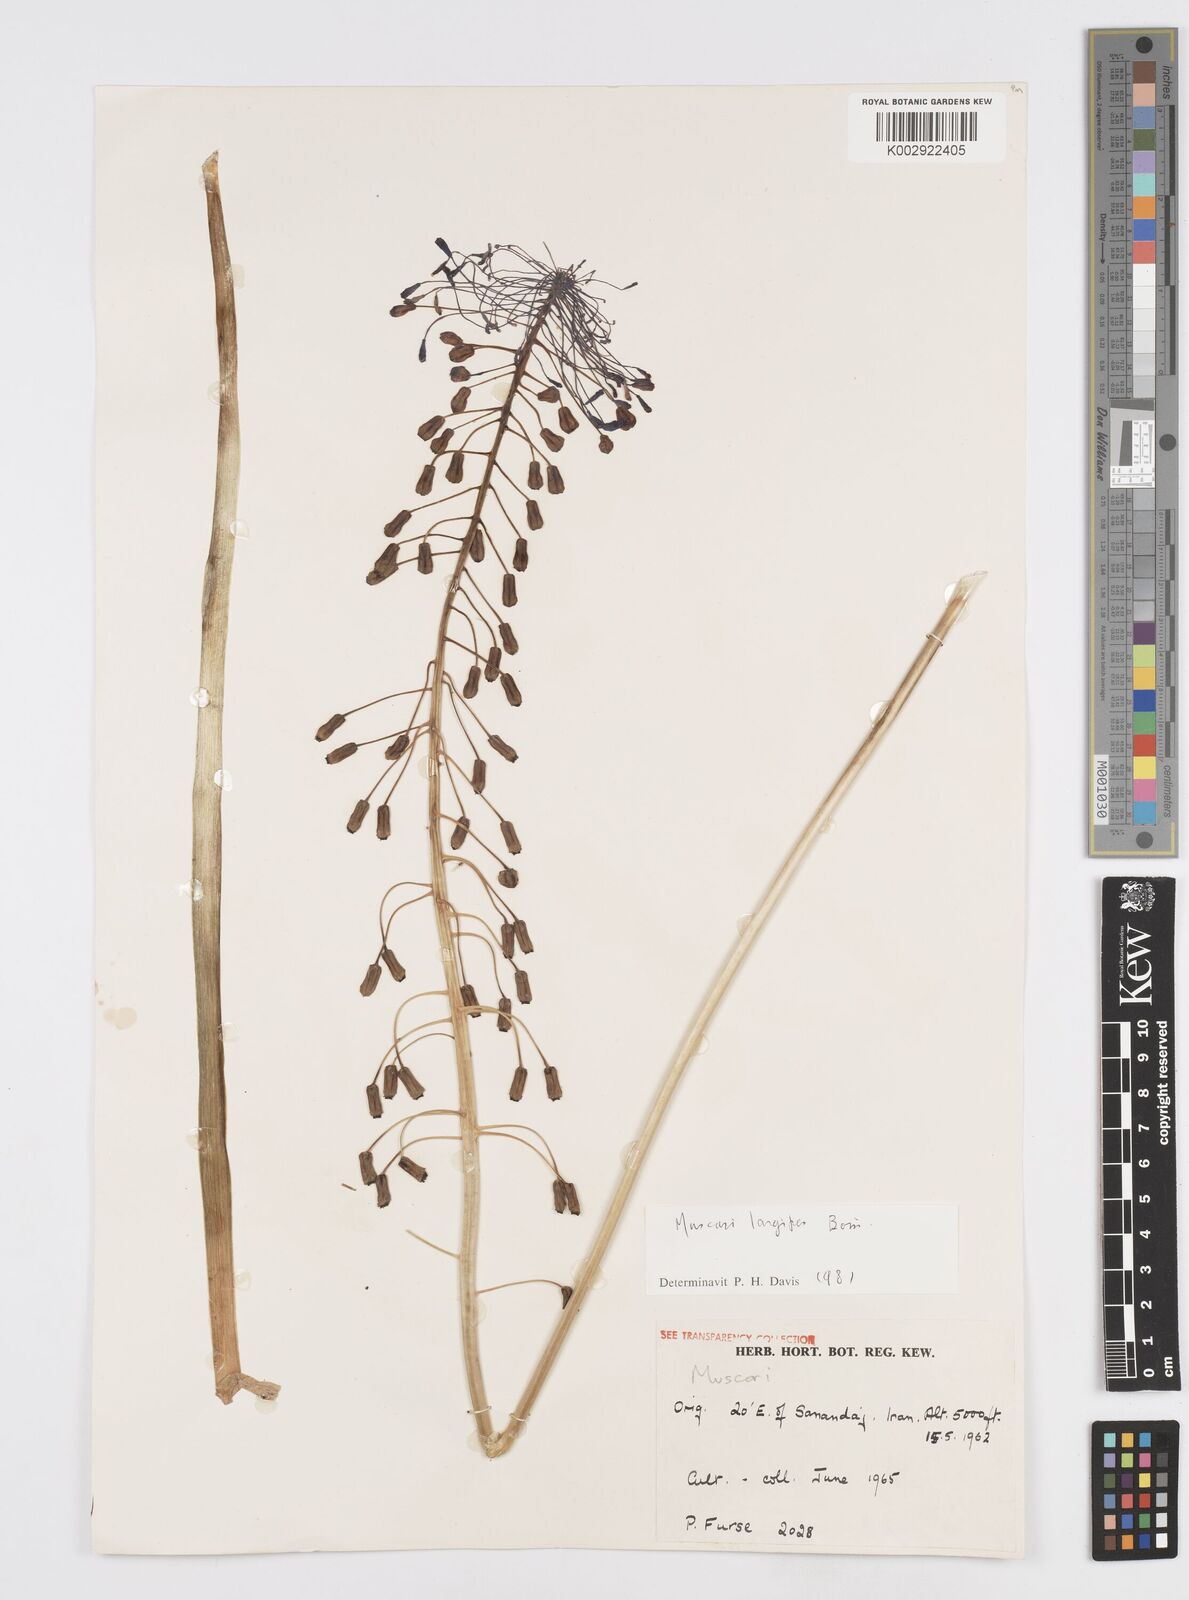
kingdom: Plantae
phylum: Tracheophyta
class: Liliopsida
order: Asparagales
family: Asparagaceae
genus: Muscari
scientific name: Muscari longipes
